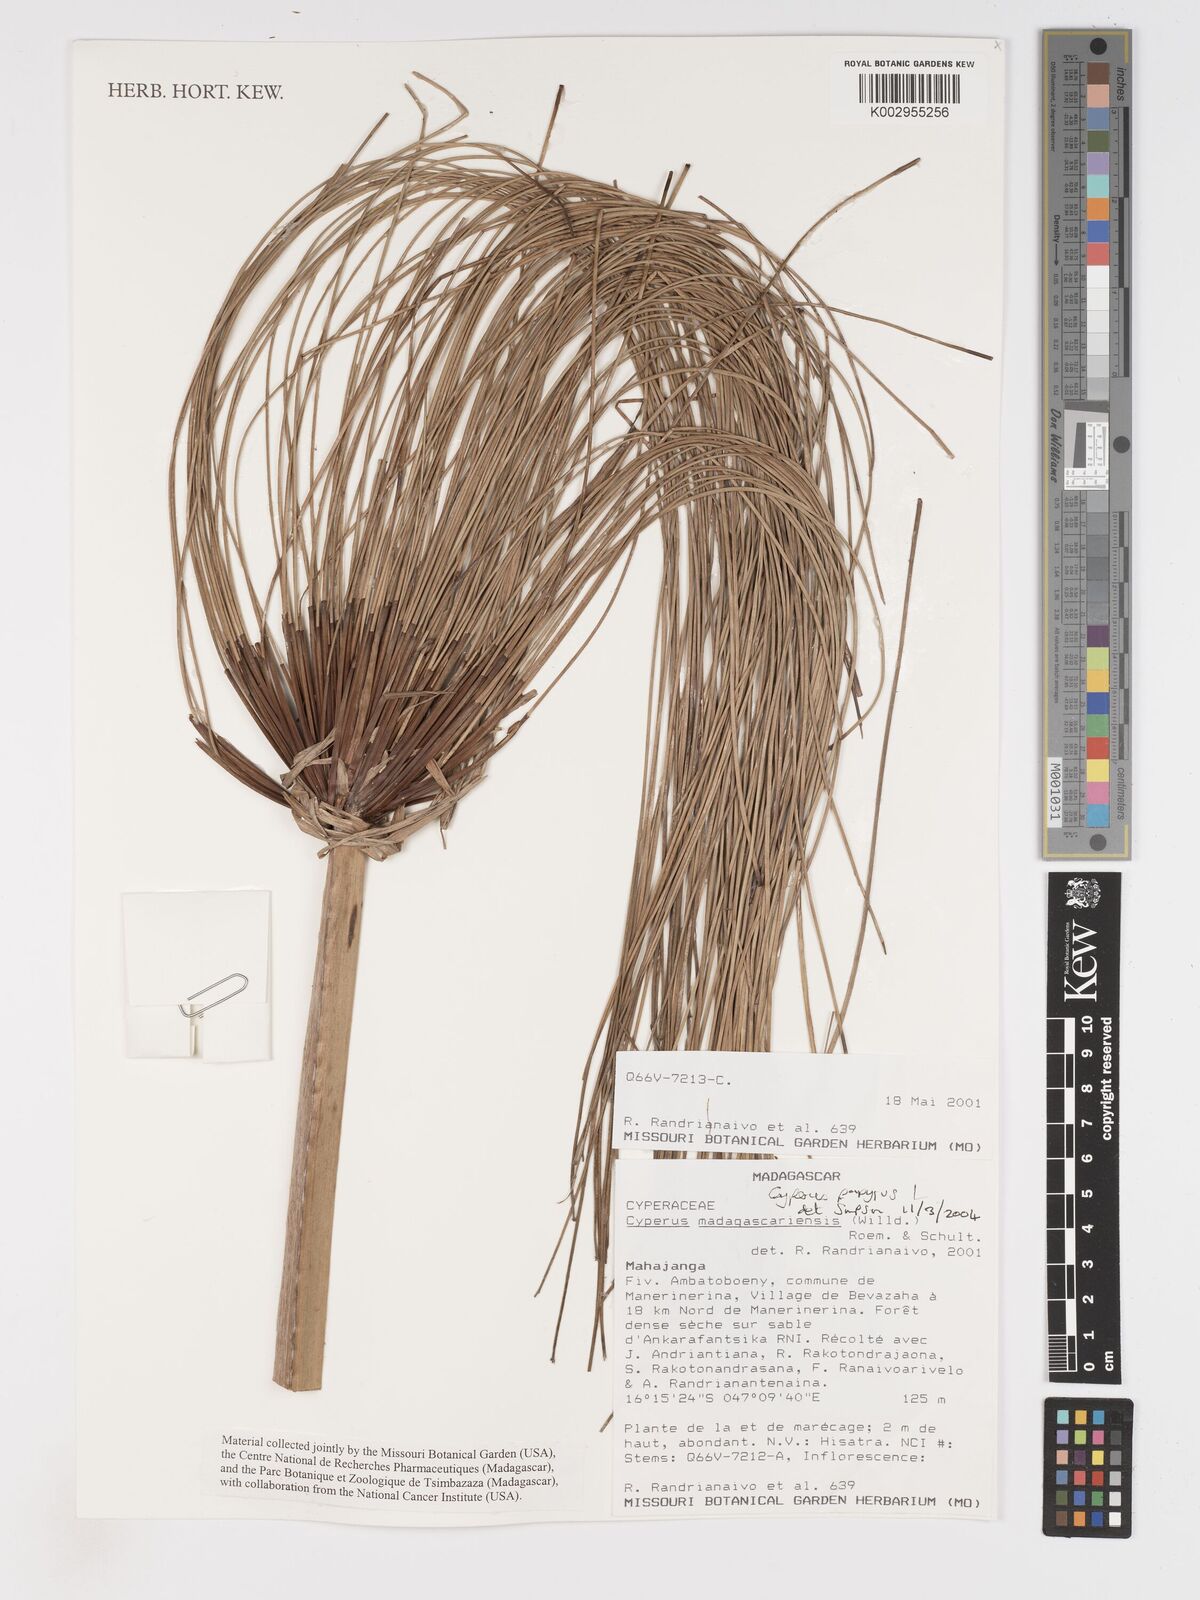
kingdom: Plantae
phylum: Tracheophyta
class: Liliopsida
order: Poales
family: Cyperaceae
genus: Cyperus
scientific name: Cyperus papyrus
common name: Papyrus
